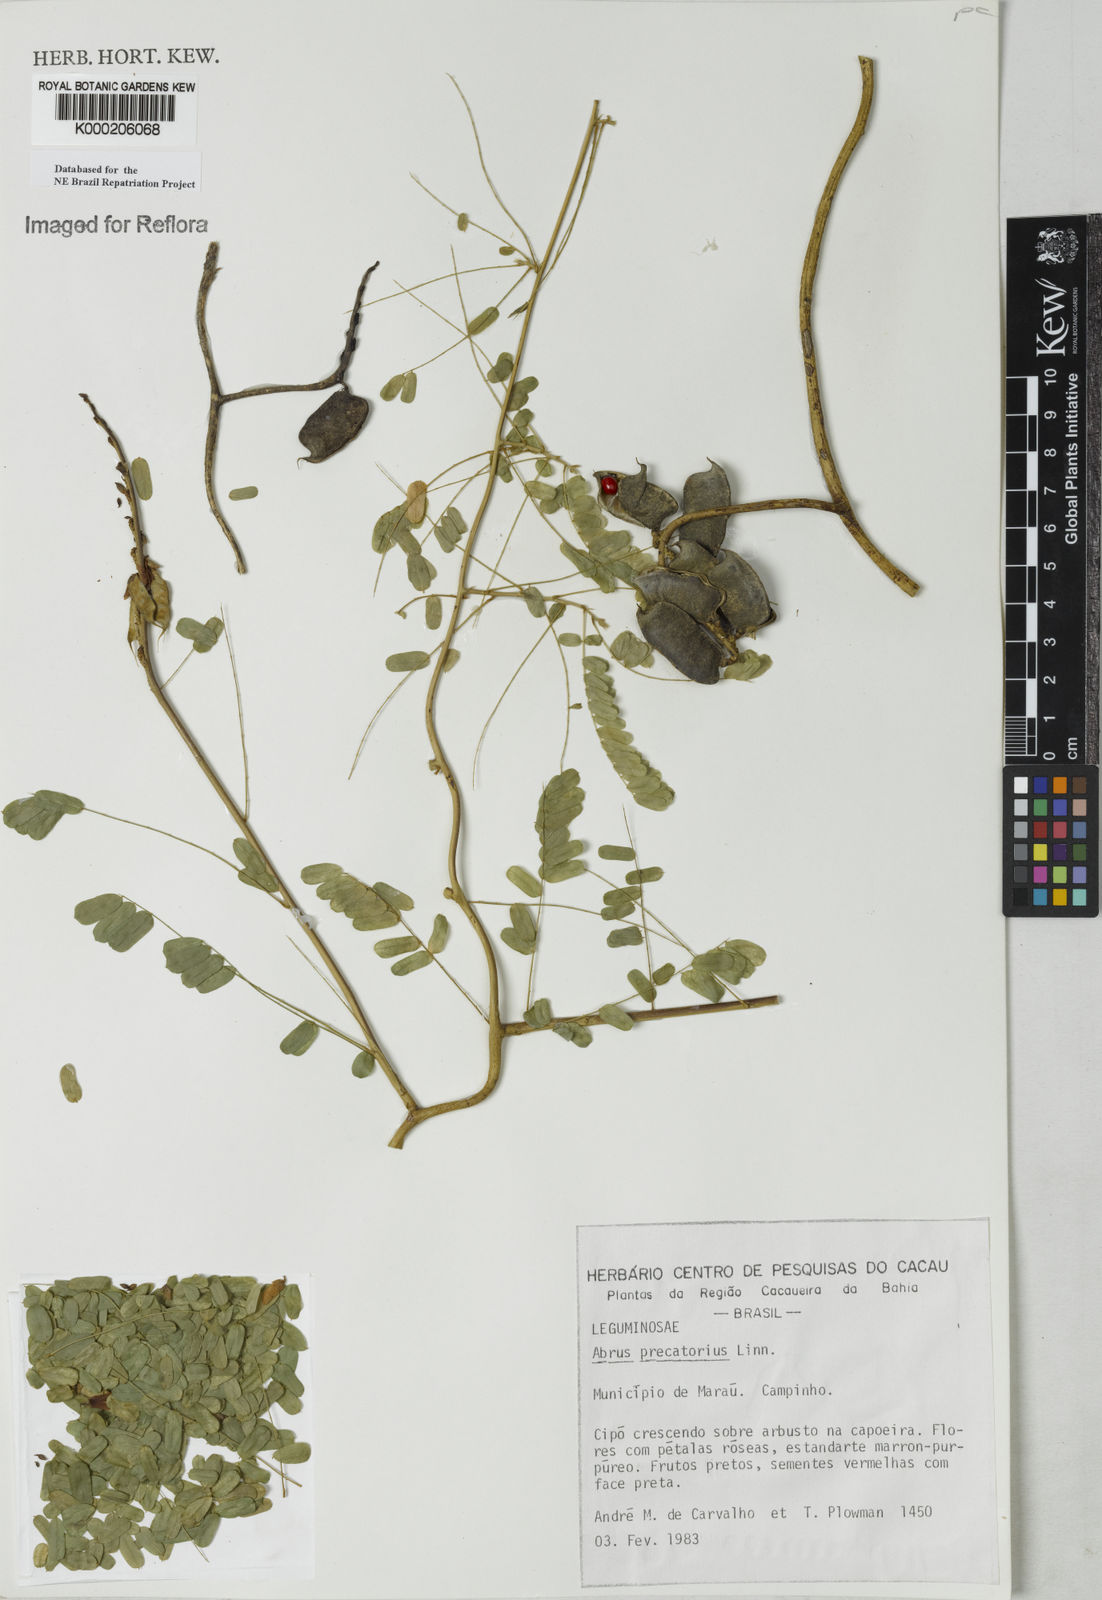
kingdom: Plantae
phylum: Tracheophyta
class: Magnoliopsida
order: Fabales
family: Fabaceae
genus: Abrus
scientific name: Abrus precatorius
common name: Rosarypea
